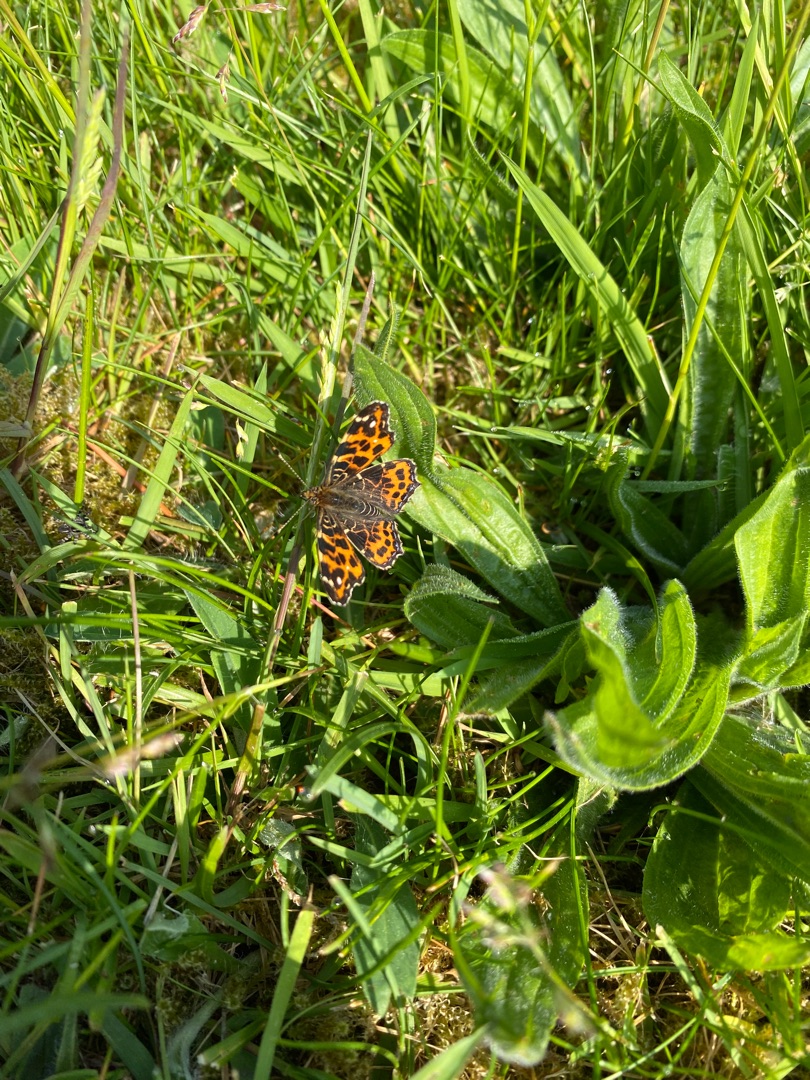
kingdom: Animalia
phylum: Arthropoda
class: Insecta
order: Lepidoptera
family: Nymphalidae
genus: Araschnia
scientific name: Araschnia levana
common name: Nældesommerfugl
